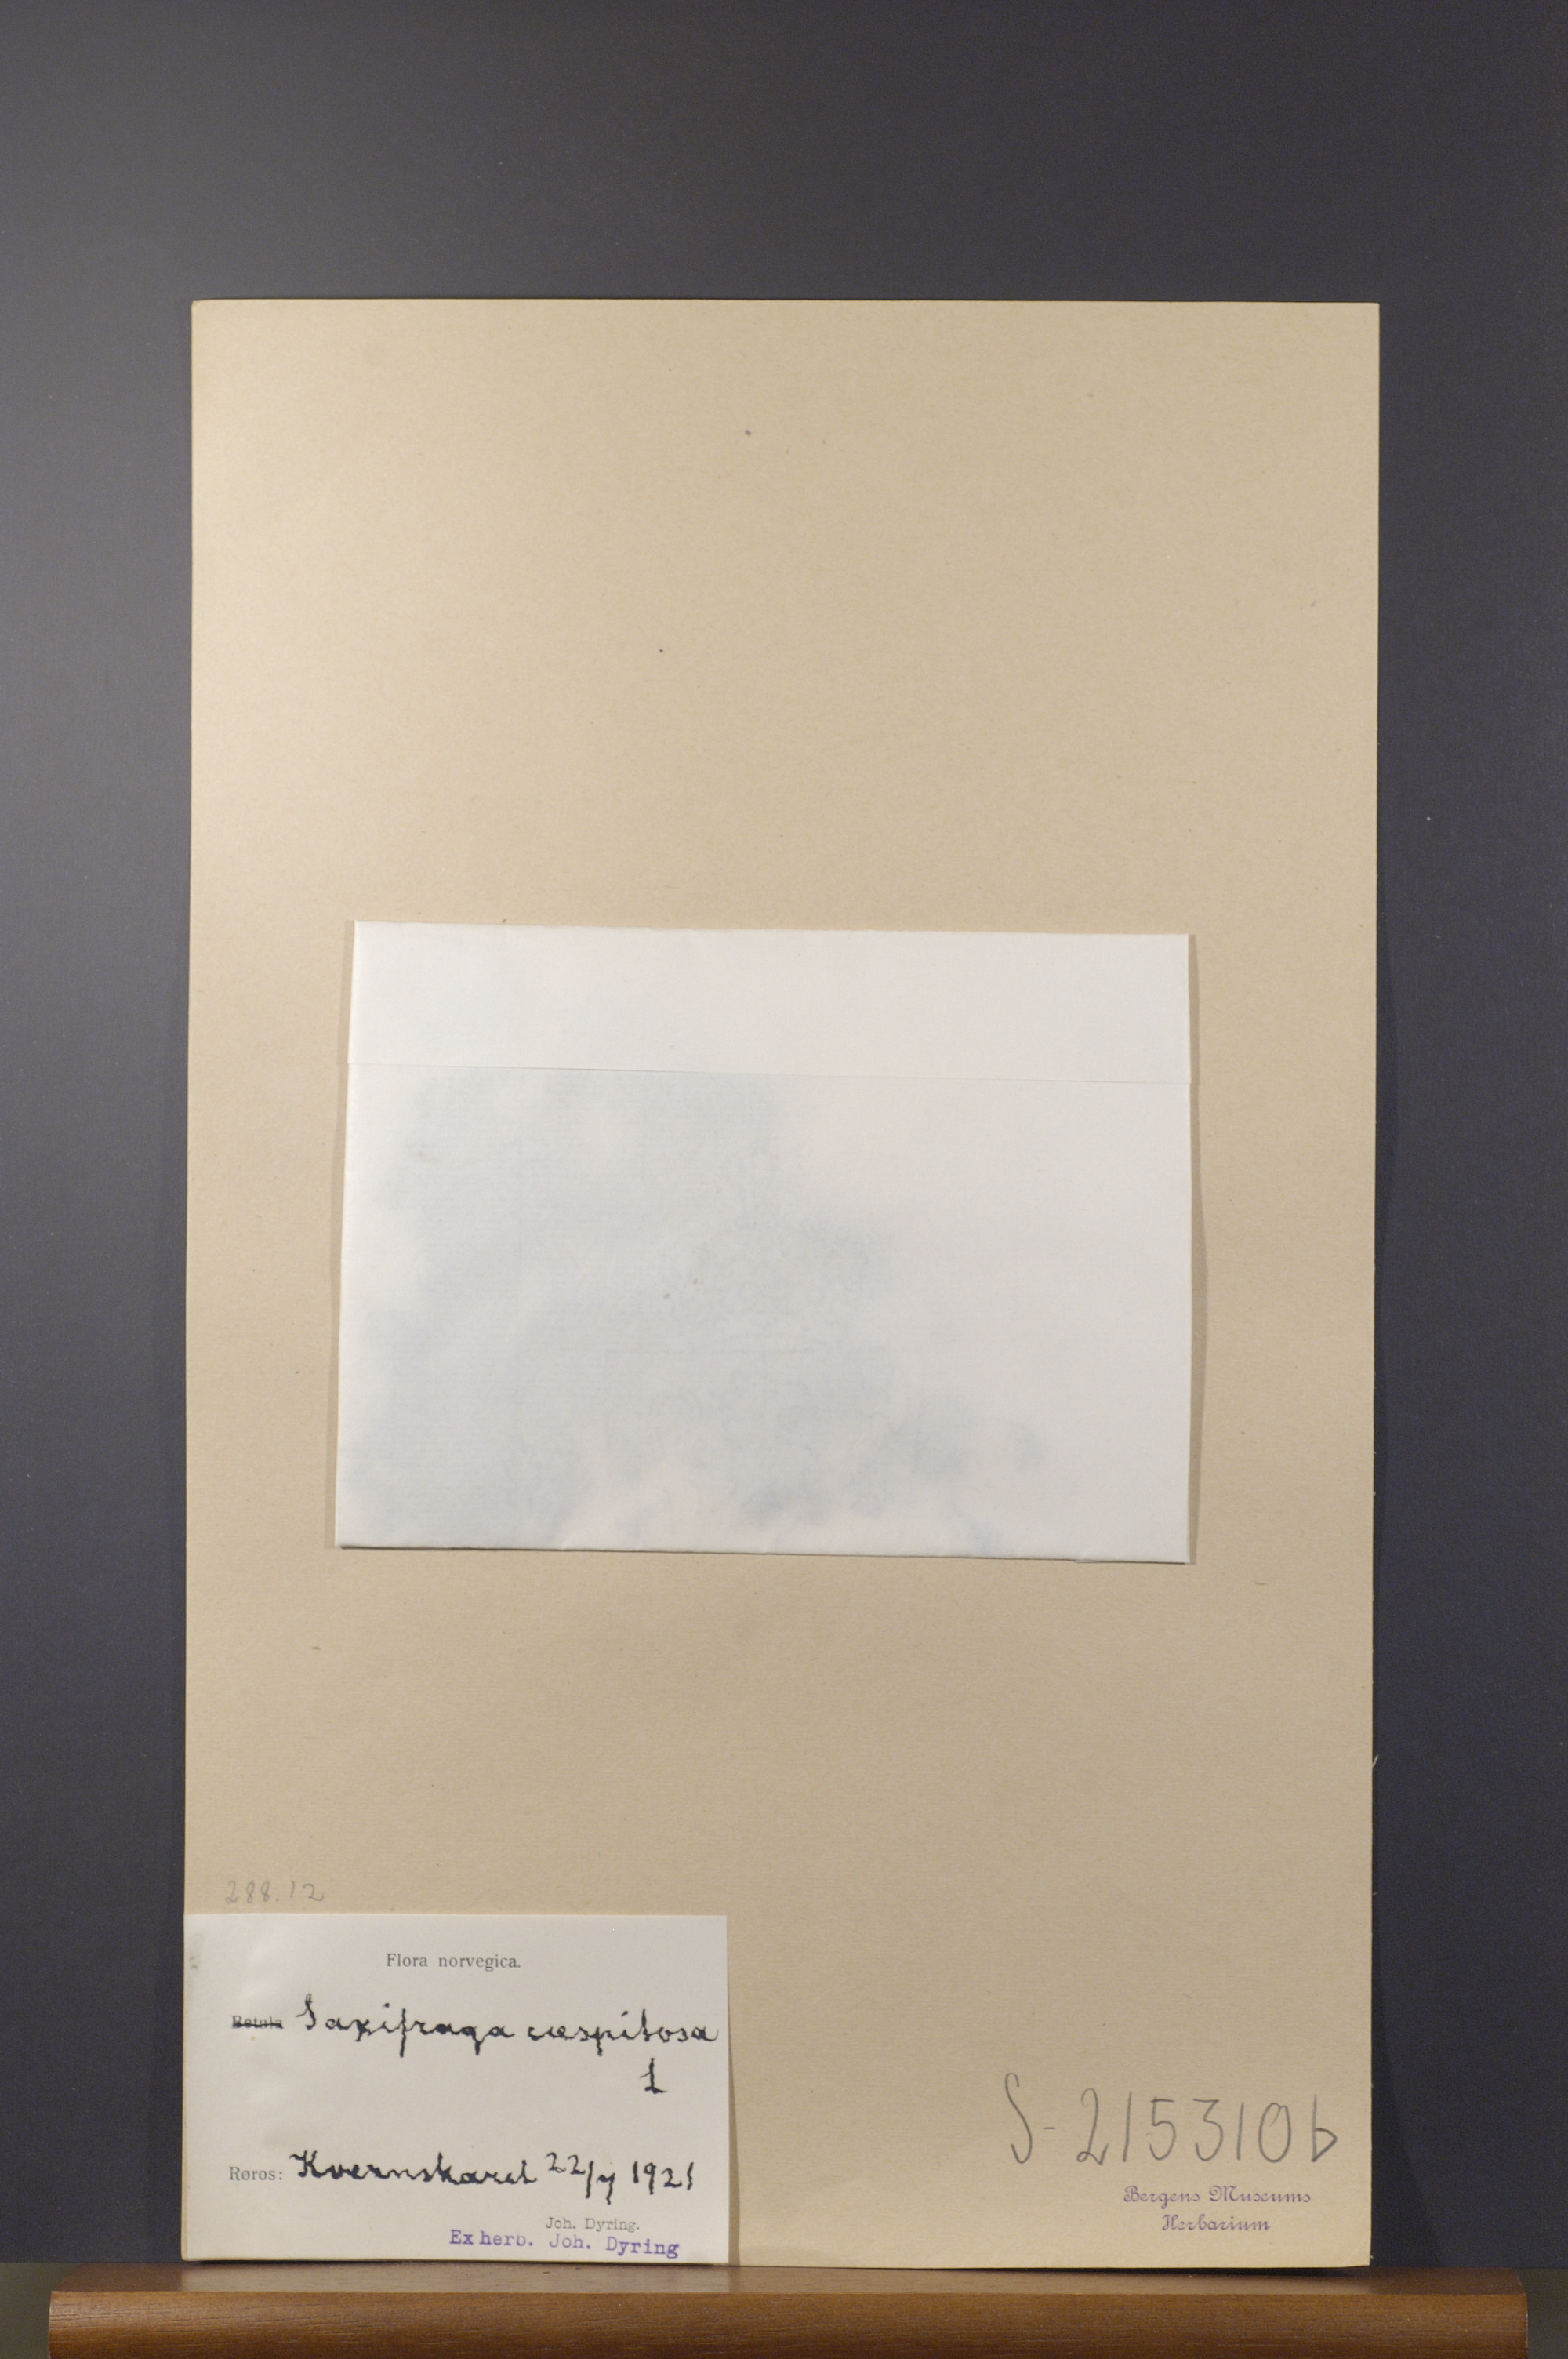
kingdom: Plantae
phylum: Tracheophyta
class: Magnoliopsida
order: Saxifragales
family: Saxifragaceae
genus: Saxifraga
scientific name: Saxifraga cespitosa
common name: Tufted saxifrage
